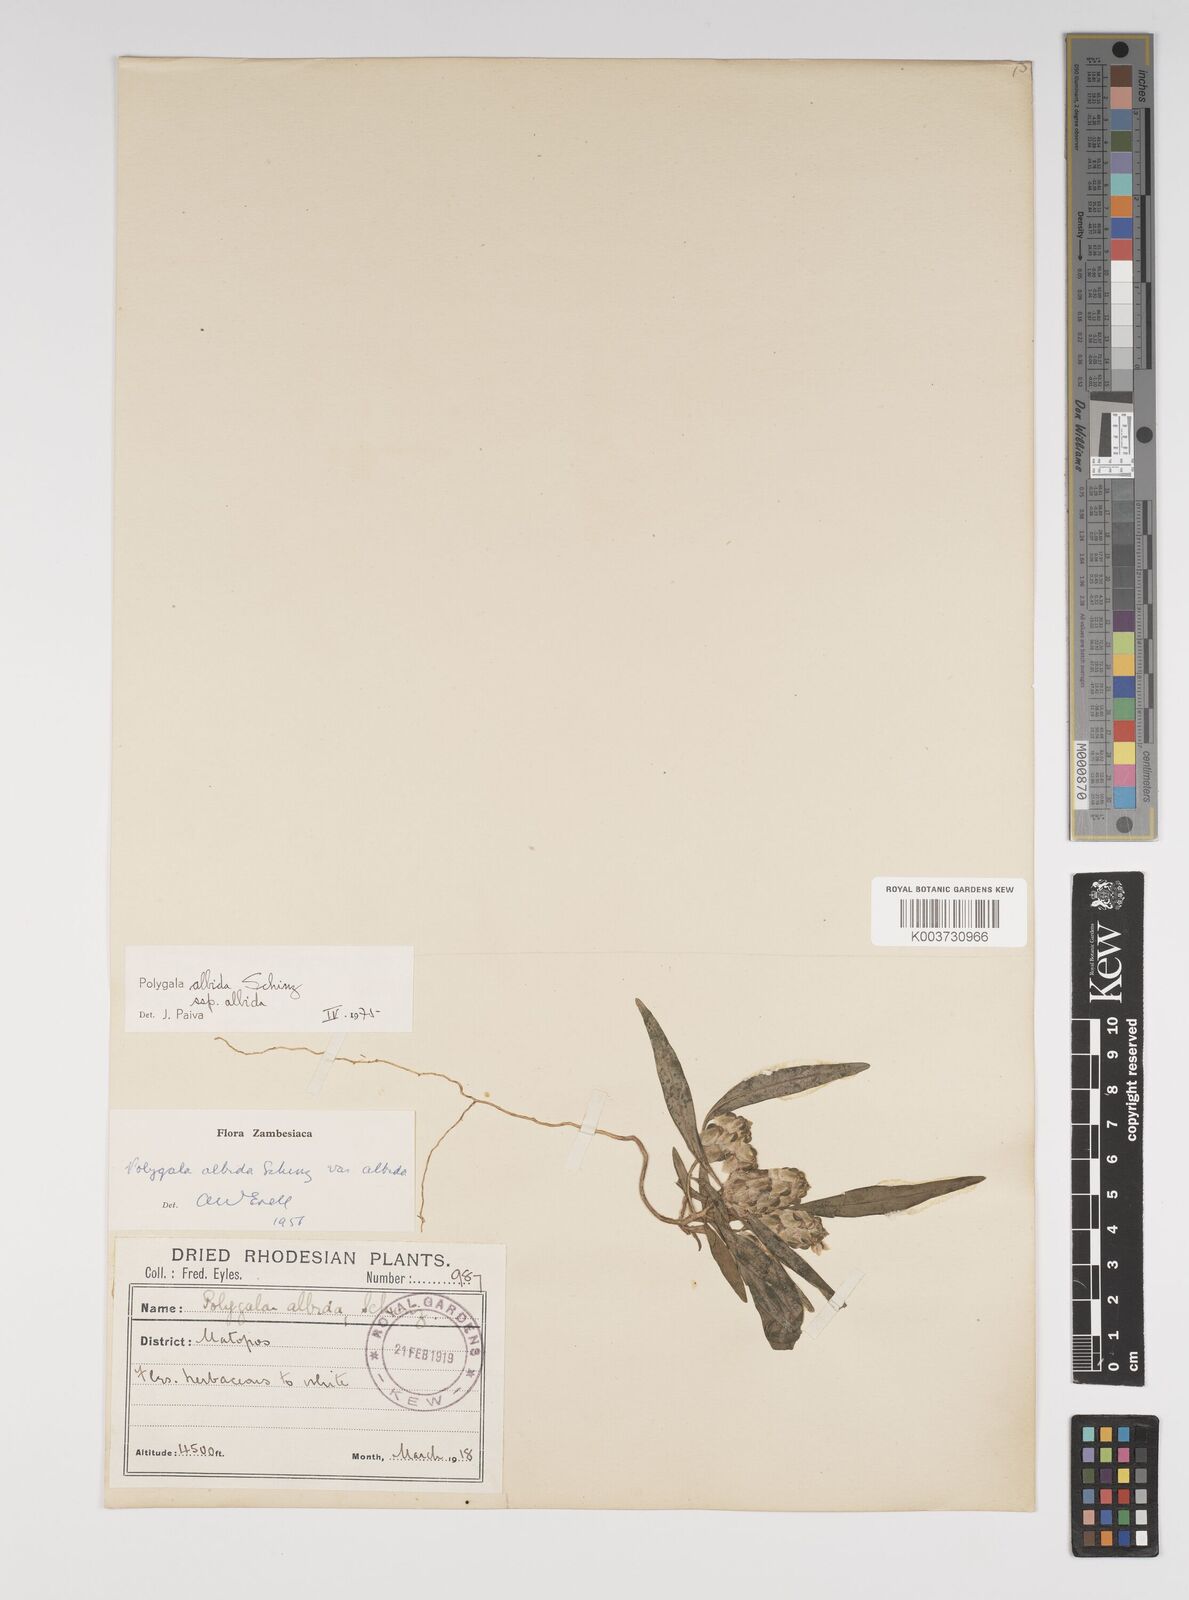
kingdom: Plantae
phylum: Tracheophyta
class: Magnoliopsida
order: Fabales
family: Polygalaceae
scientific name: Polygalaceae
